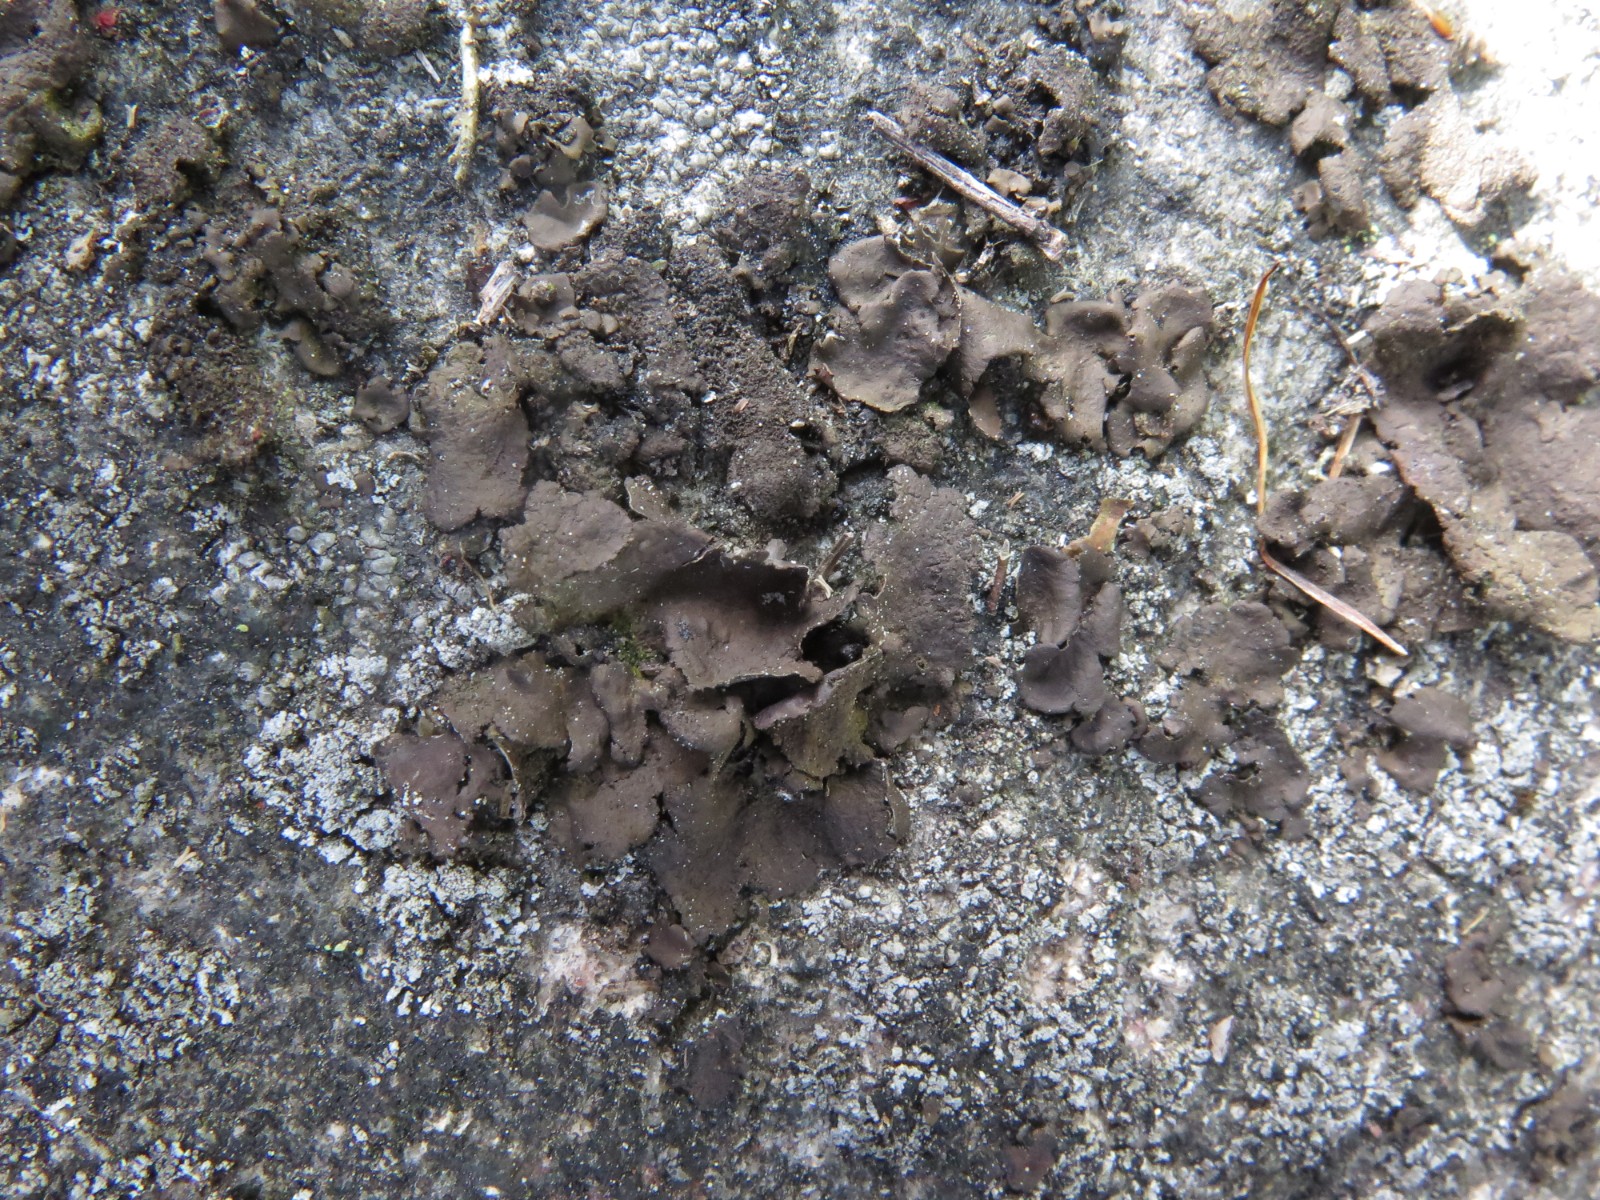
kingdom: Fungi
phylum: Ascomycota
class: Lecanoromycetes
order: Umbilicariales
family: Umbilicariaceae
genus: Umbilicaria
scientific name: Umbilicaria polyphylla
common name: glat navlelav
